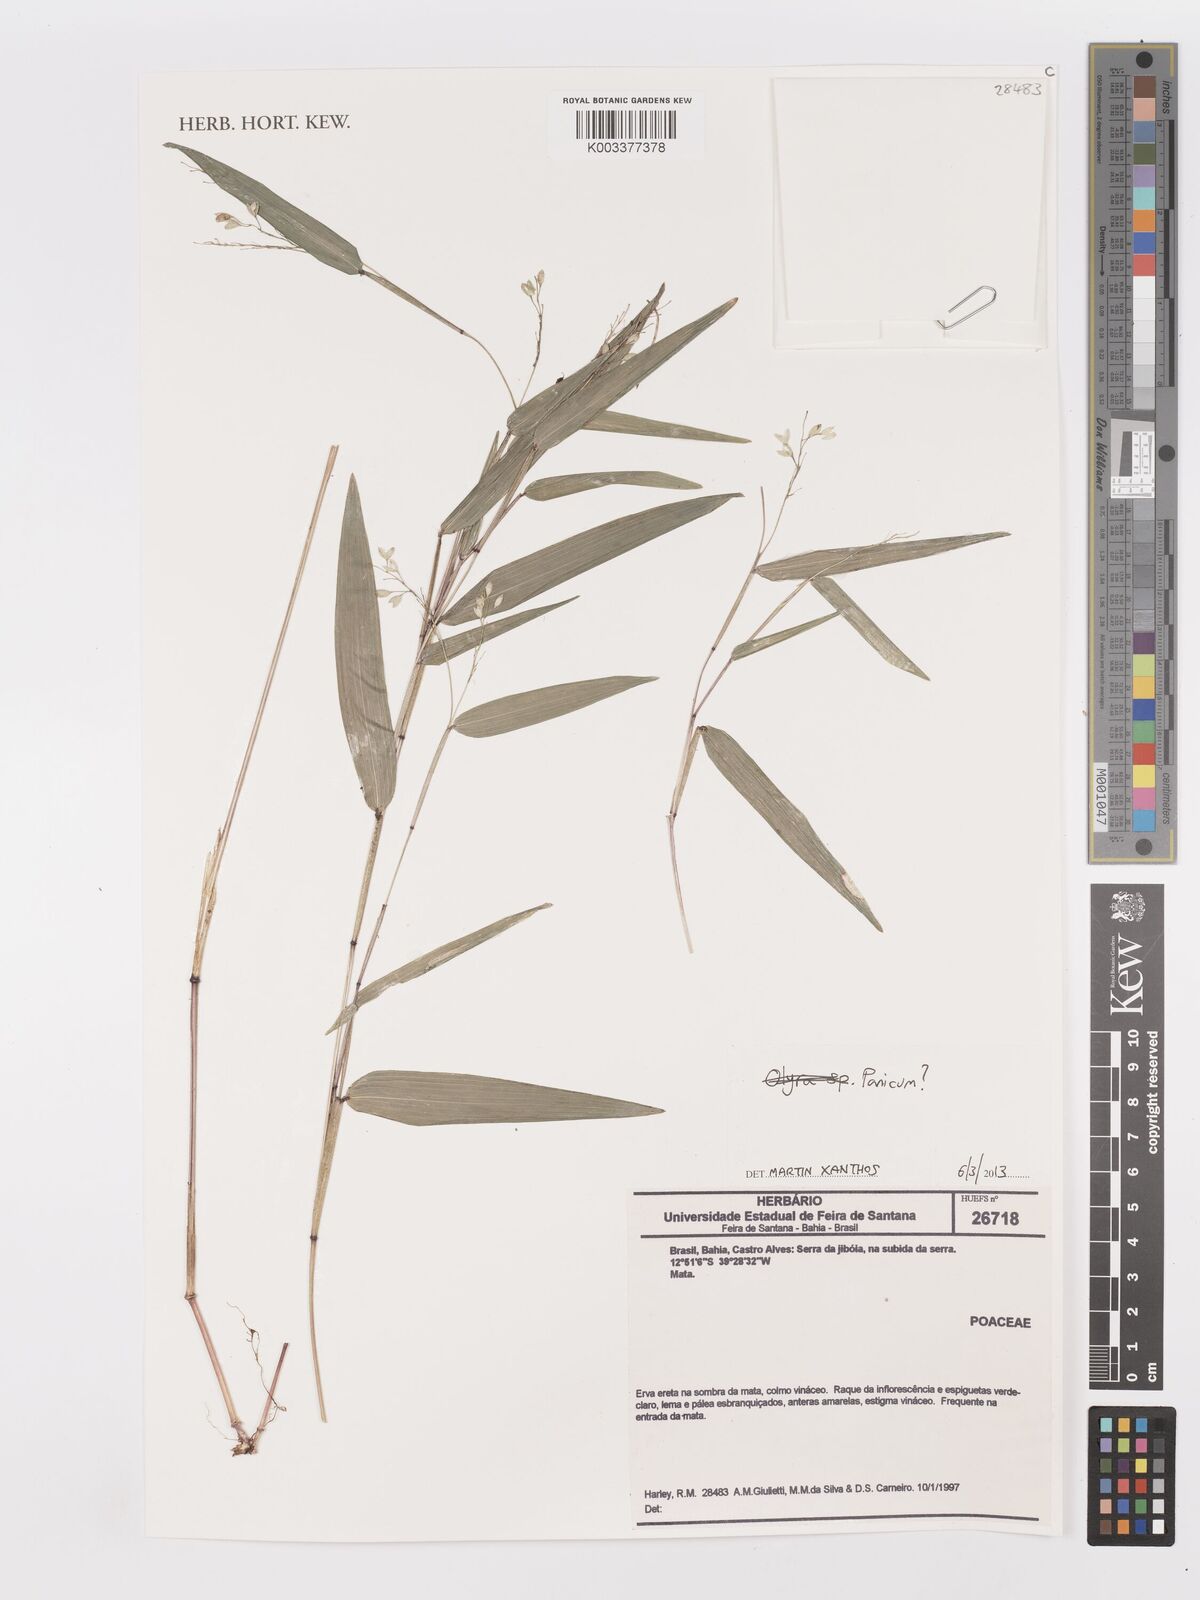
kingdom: Plantae
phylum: Tracheophyta
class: Liliopsida
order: Poales
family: Poaceae
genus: Panicum
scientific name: Panicum
